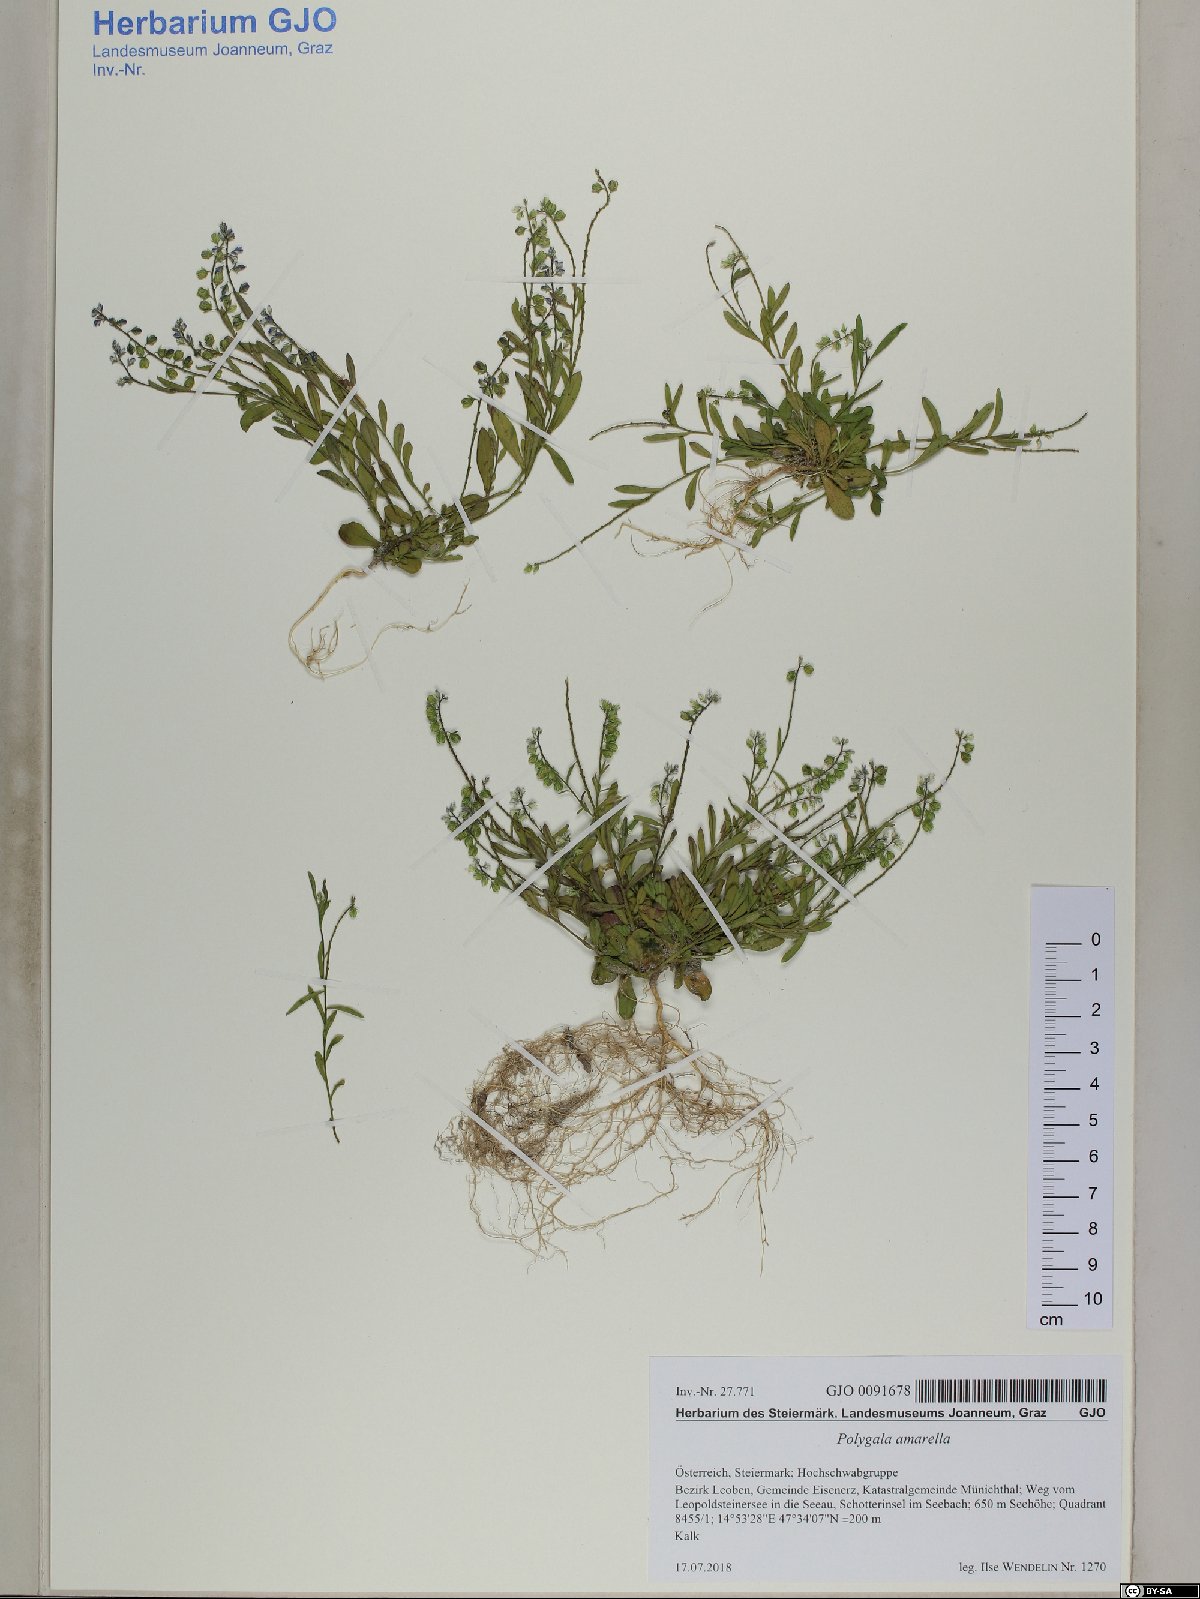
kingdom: Plantae
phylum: Tracheophyta
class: Magnoliopsida
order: Fabales
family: Polygalaceae
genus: Polygala
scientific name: Polygala amarella
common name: Dwarf milkwort
